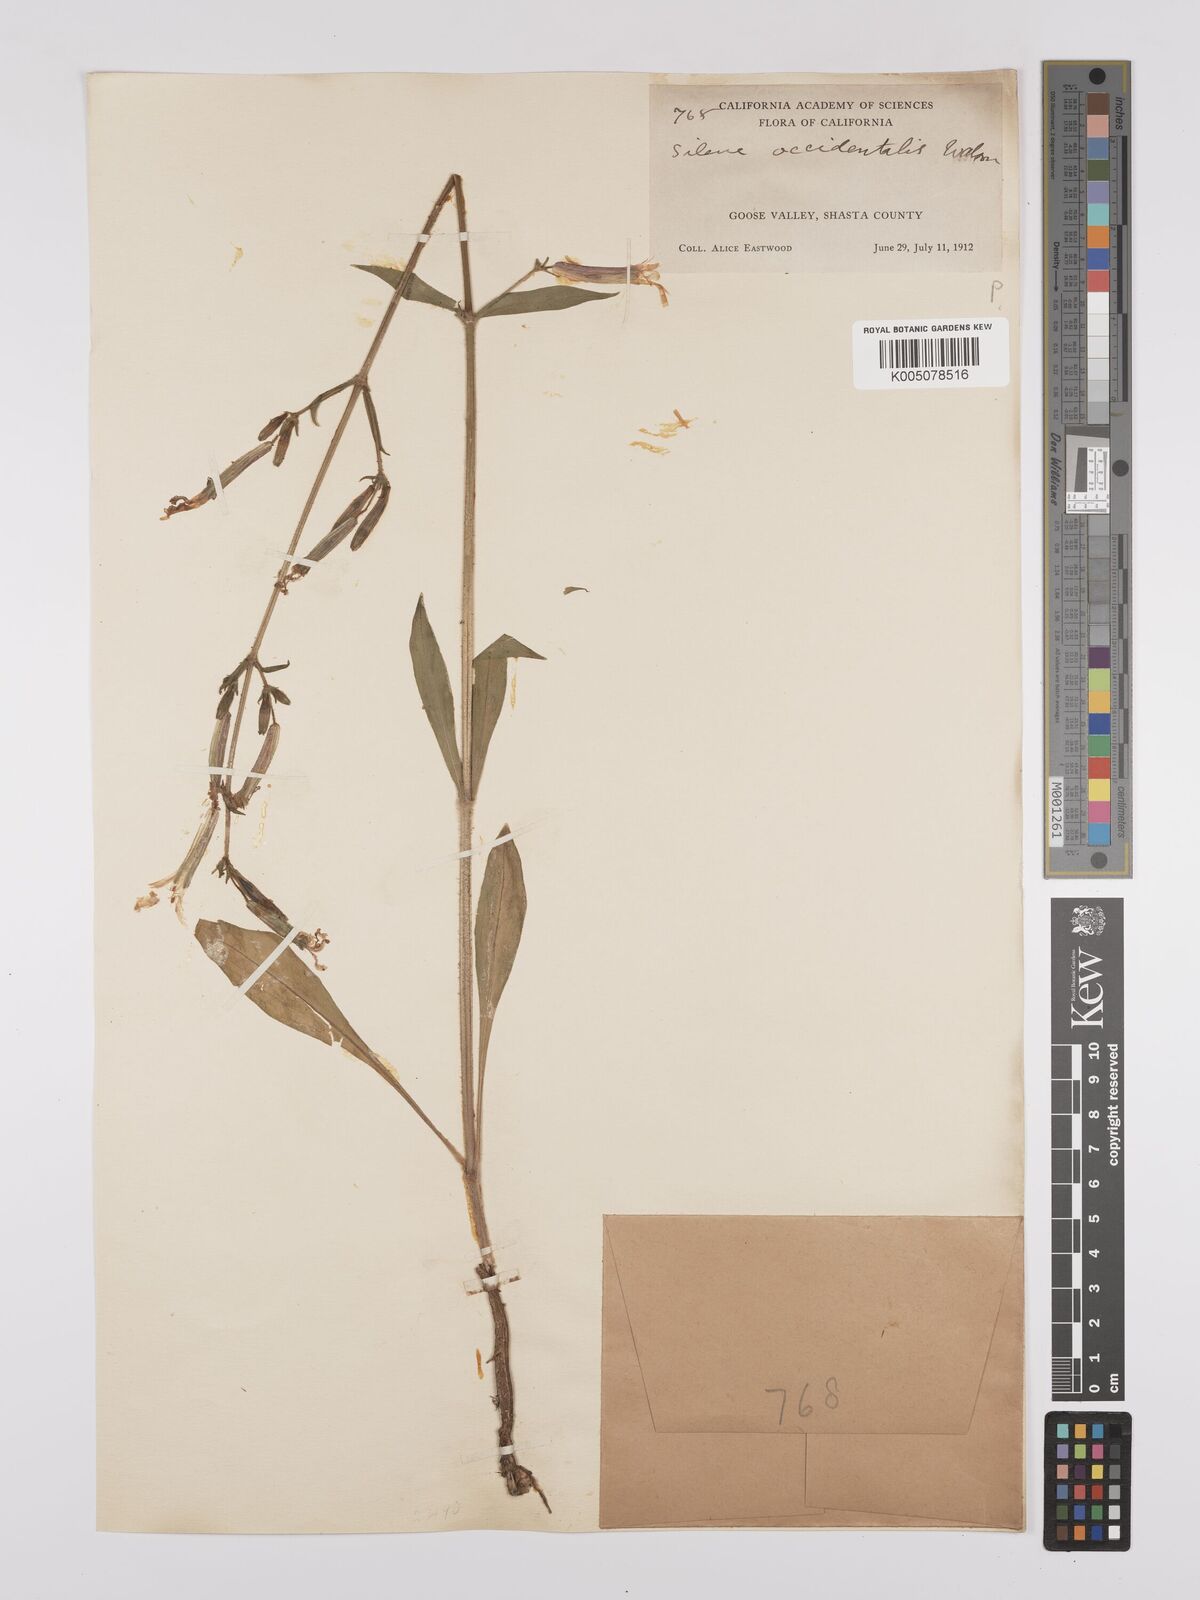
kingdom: Plantae
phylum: Tracheophyta
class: Magnoliopsida
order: Caryophyllales
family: Caryophyllaceae
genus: Silene
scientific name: Silene occidentalis
